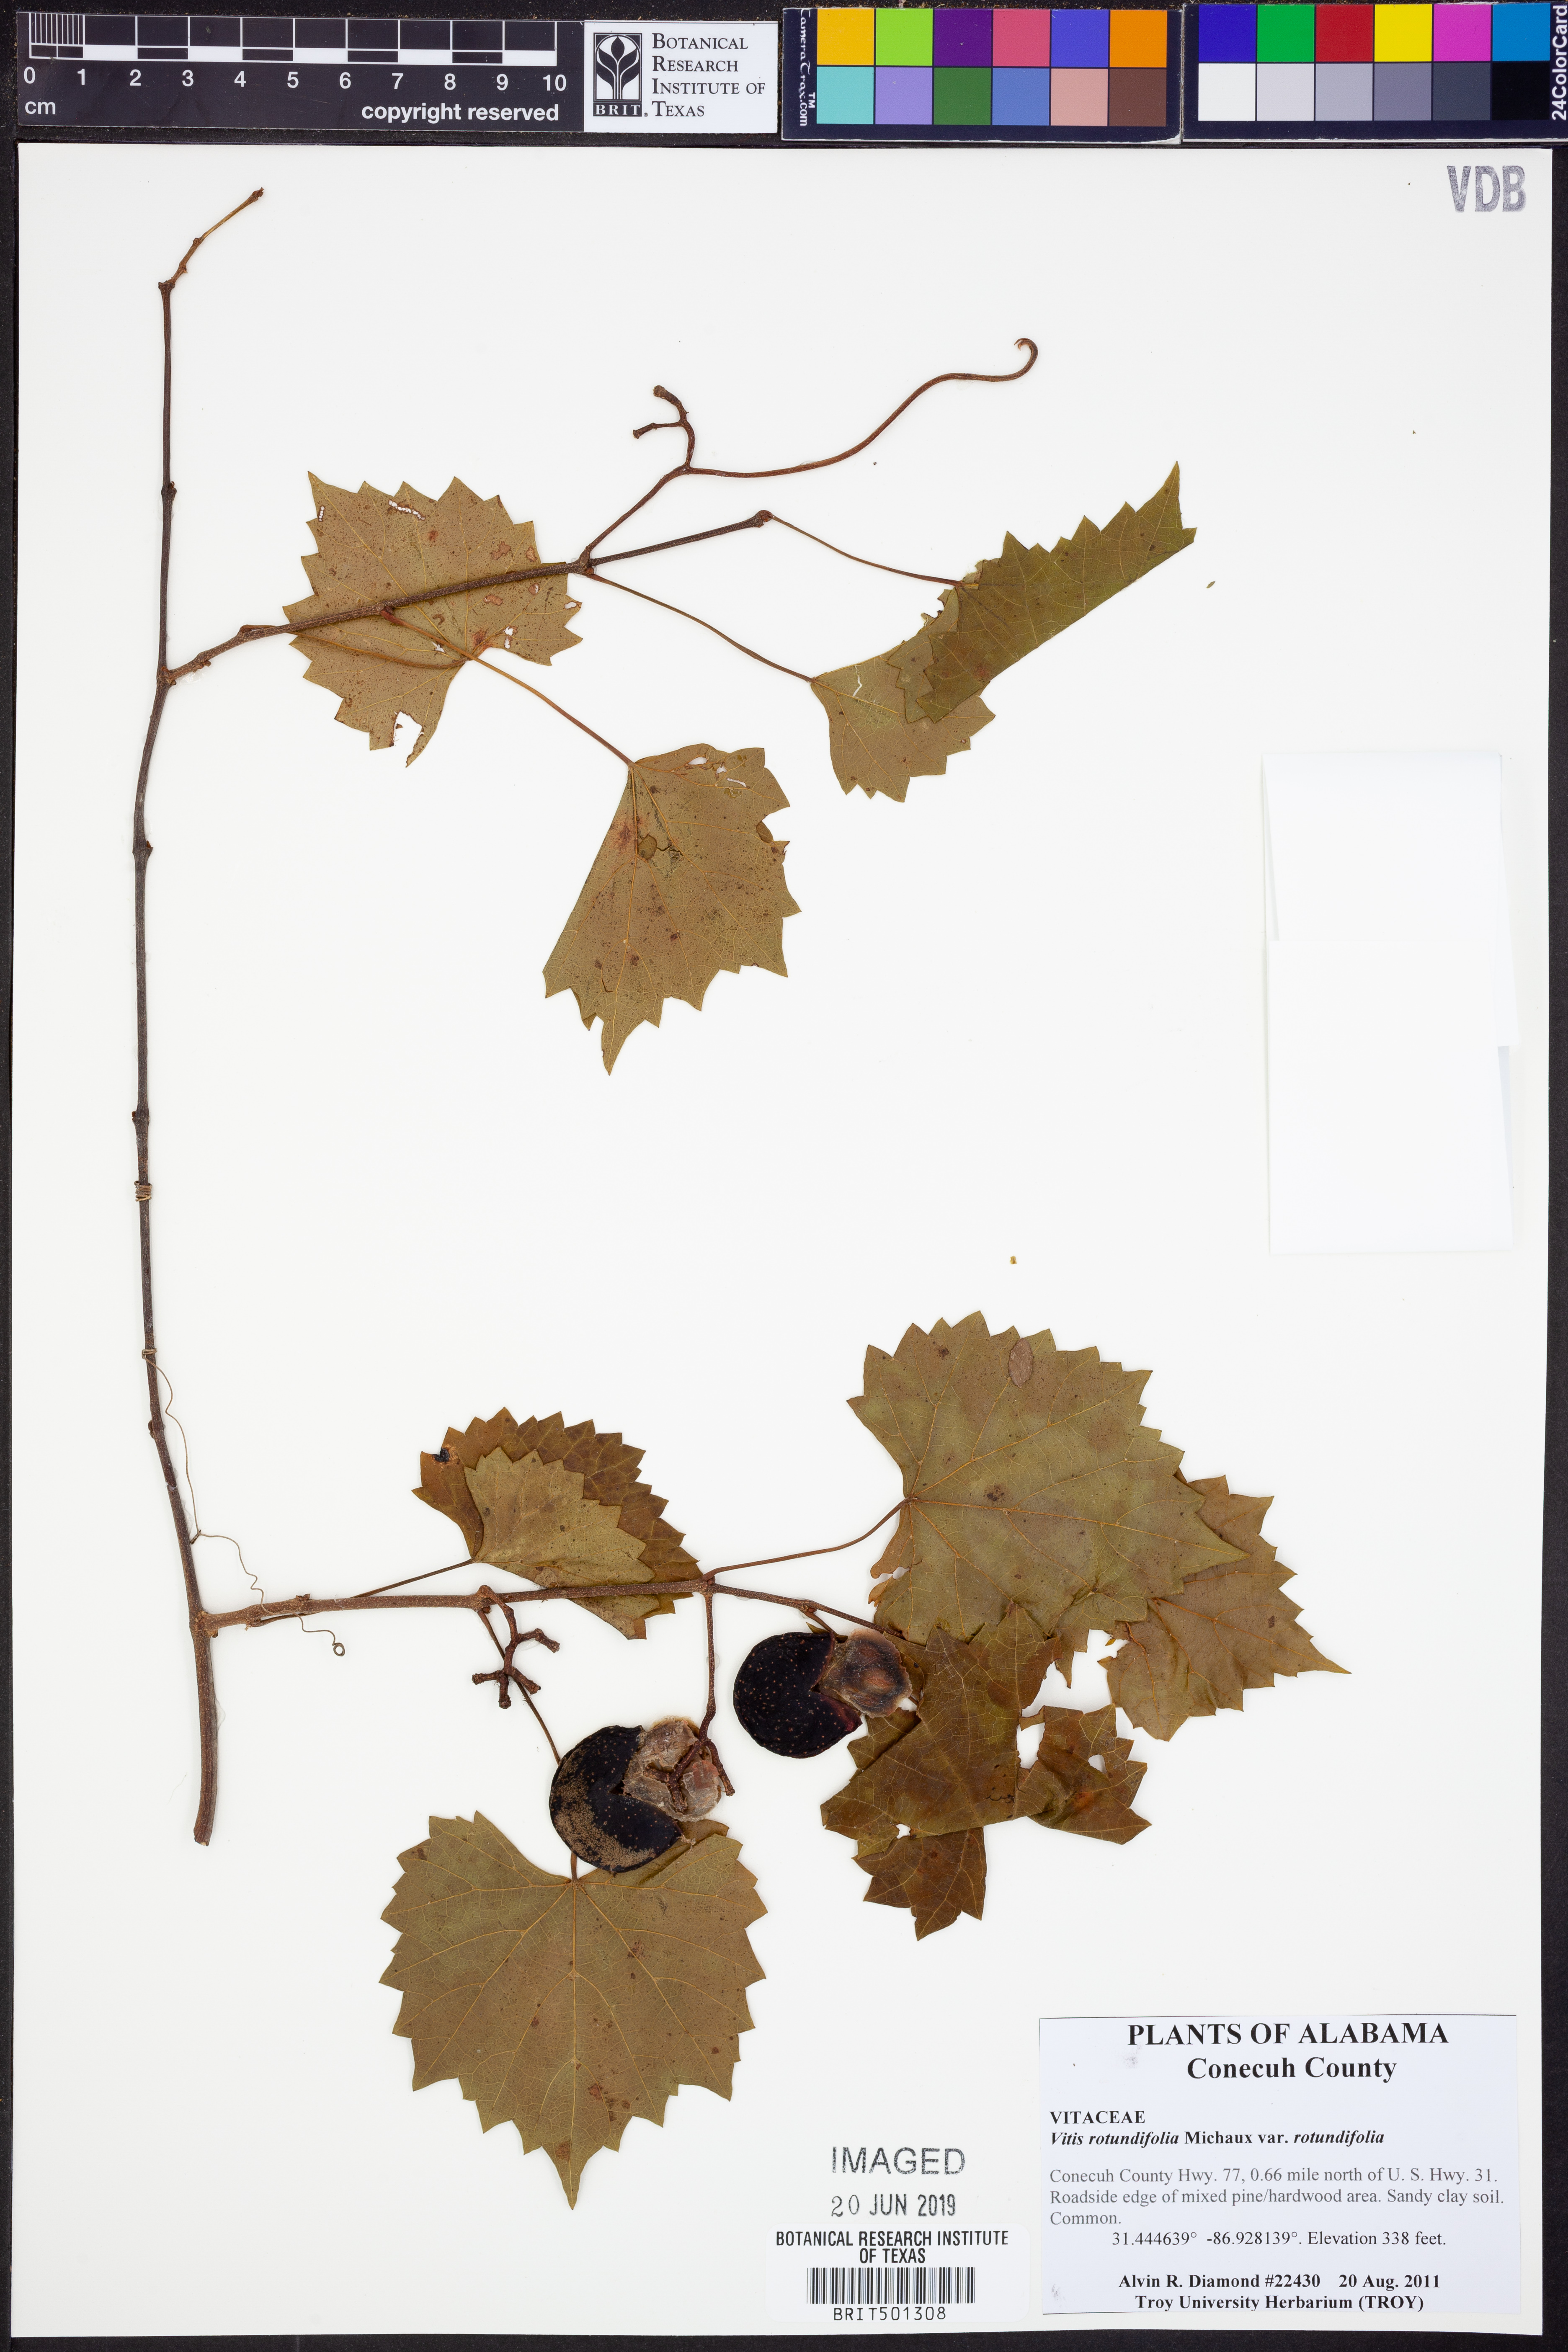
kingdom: Plantae
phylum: Tracheophyta
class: Magnoliopsida
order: Vitales
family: Vitaceae
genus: Vitis
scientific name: Vitis rotundifolia
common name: Muscadine grape
